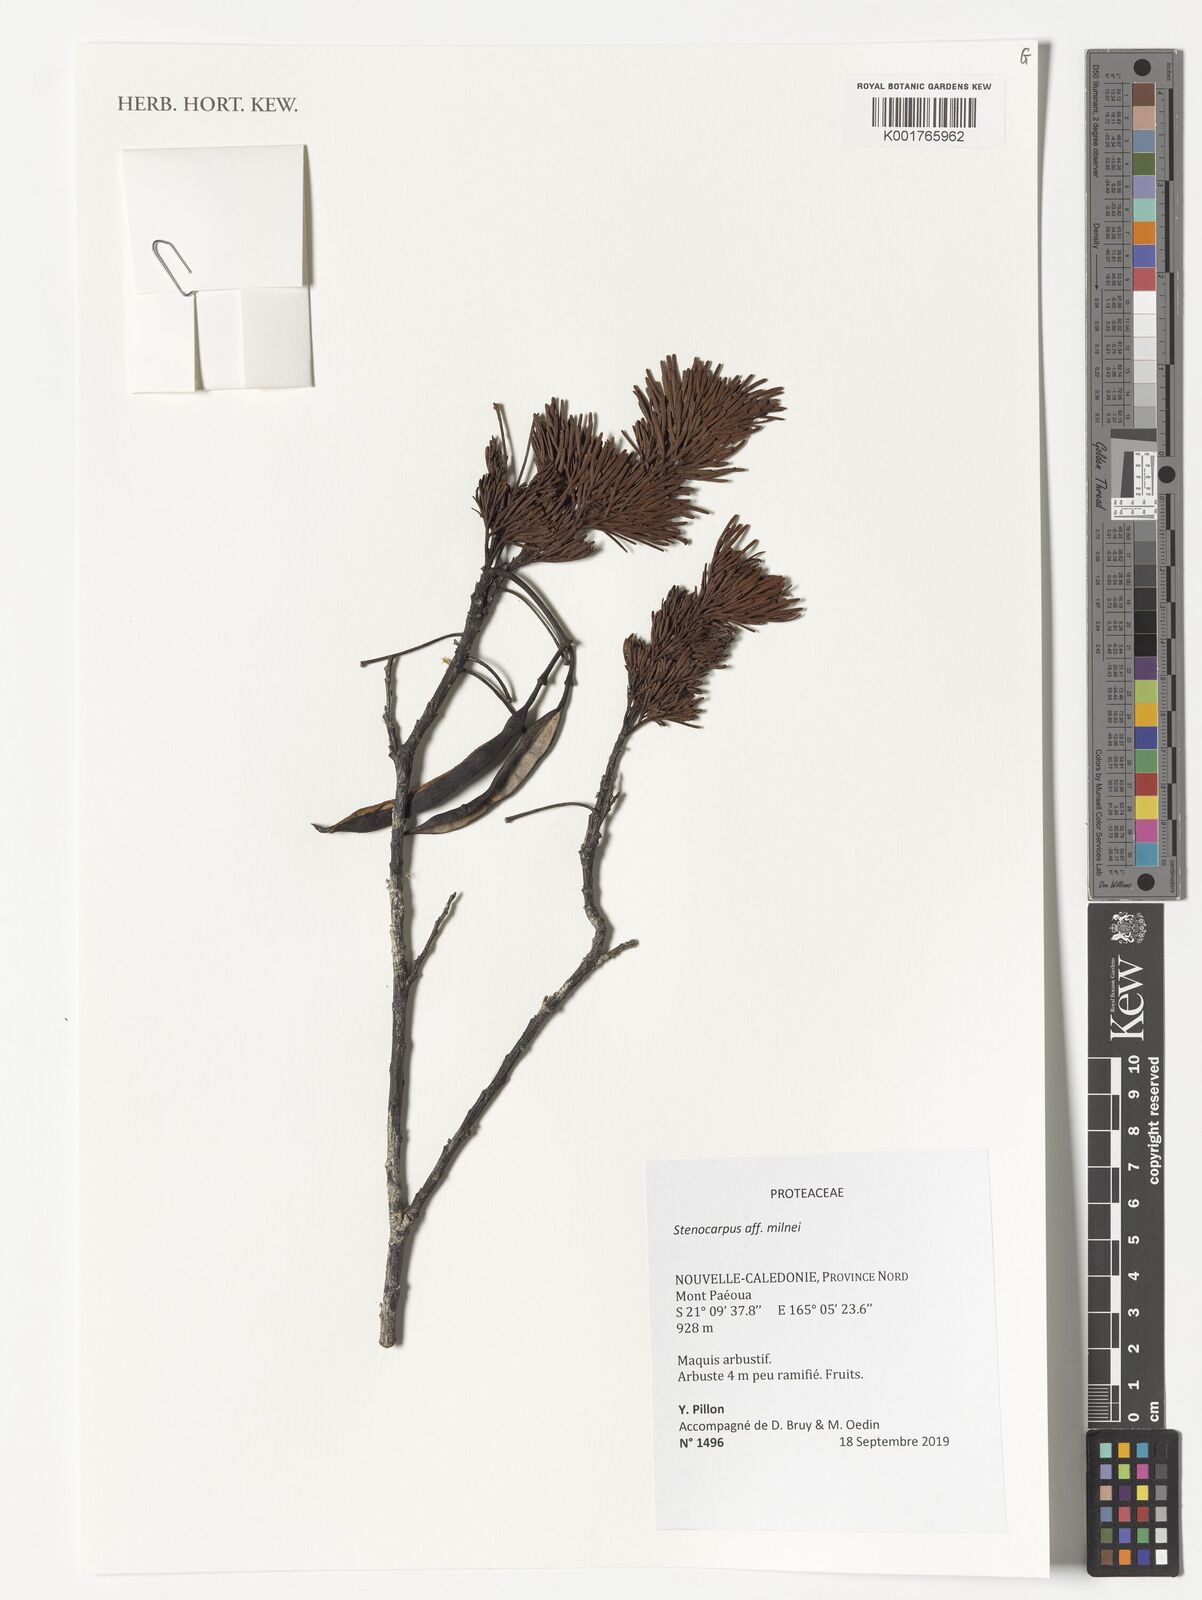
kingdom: Plantae
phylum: Tracheophyta
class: Magnoliopsida
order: Proteales
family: Proteaceae
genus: Stenocarpus
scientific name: Stenocarpus milnei
